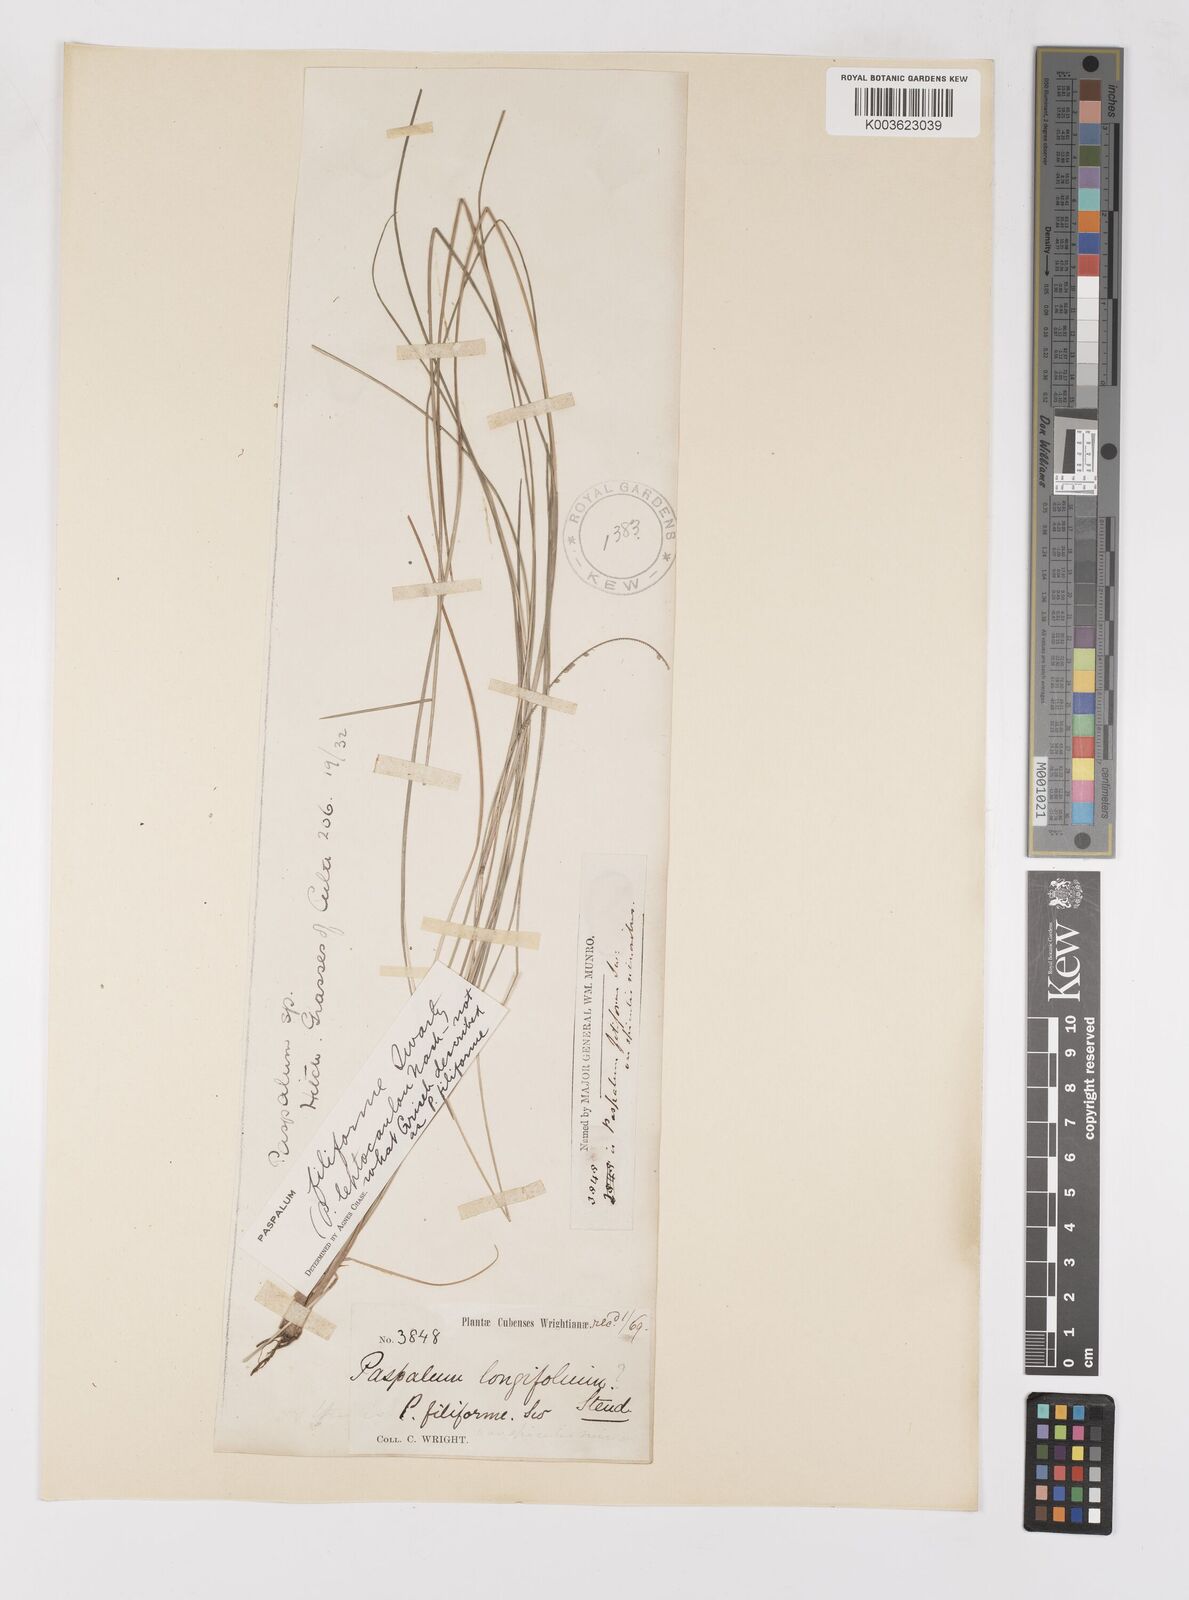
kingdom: Plantae
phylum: Tracheophyta
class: Liliopsida
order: Poales
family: Poaceae
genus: Paspalum
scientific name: Paspalum filiforme
